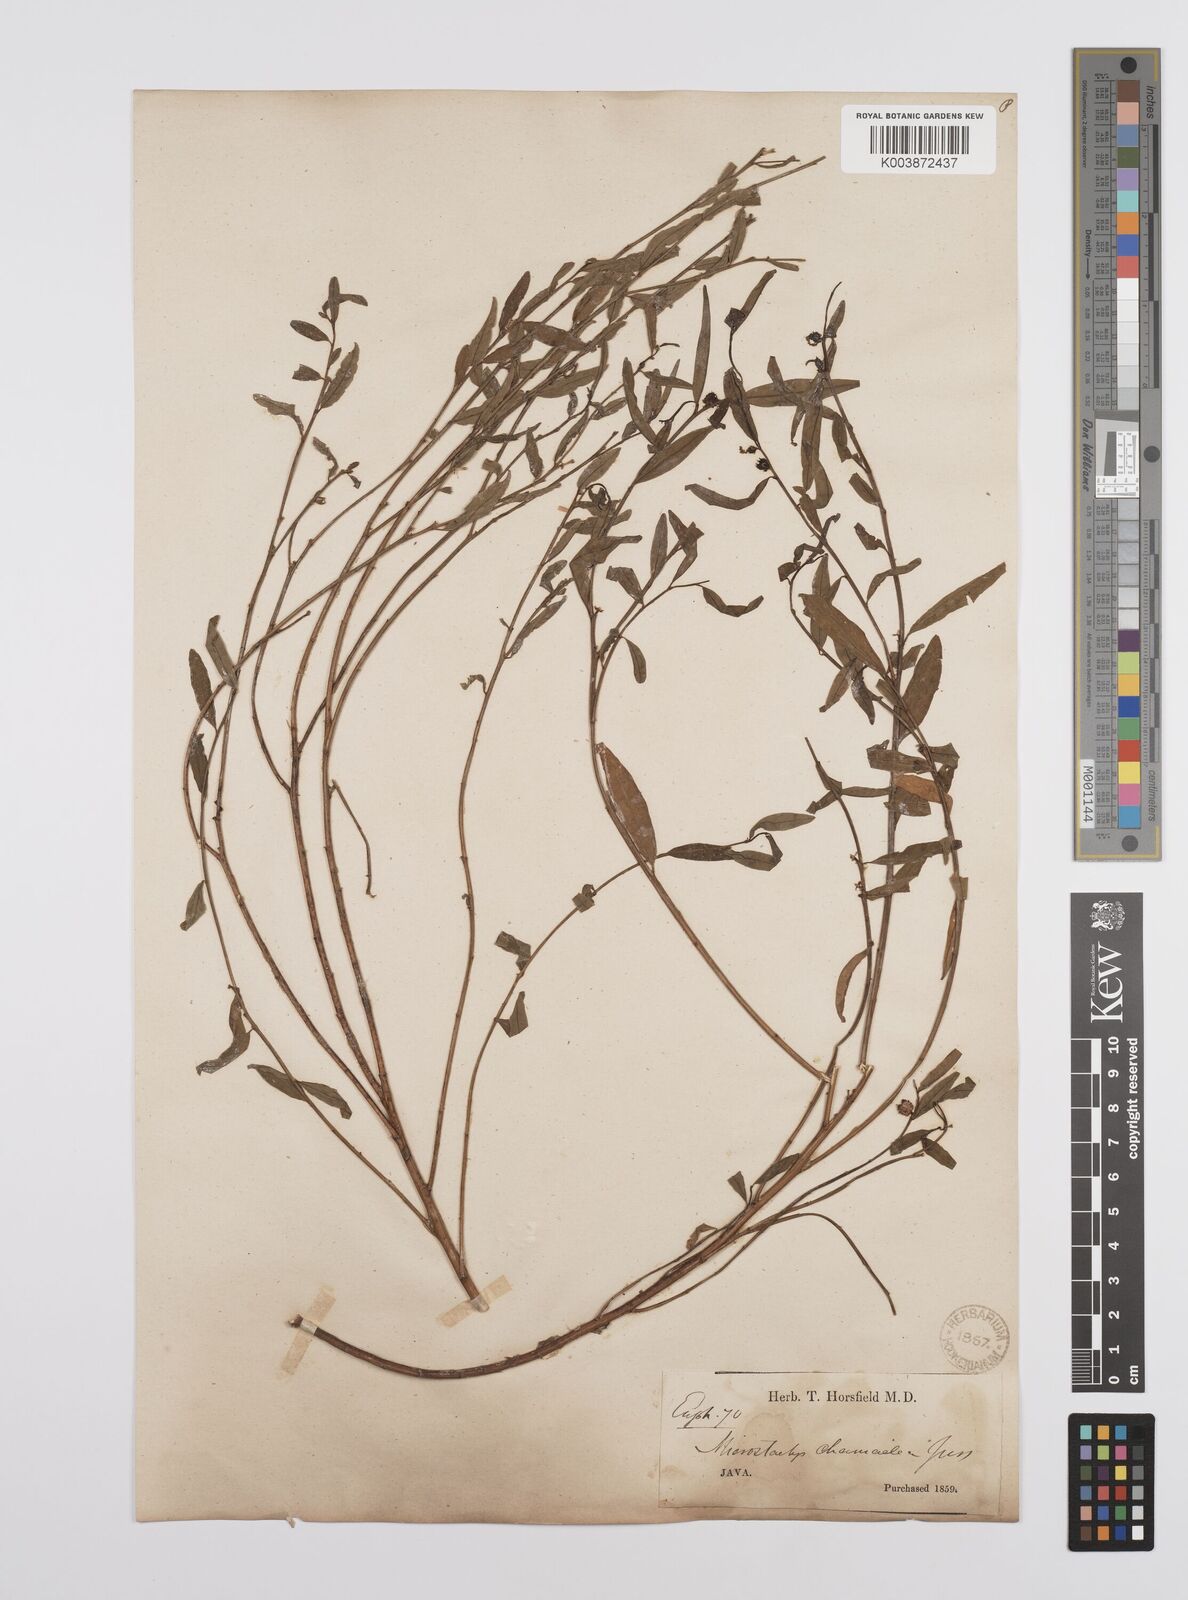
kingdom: Plantae
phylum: Tracheophyta
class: Magnoliopsida
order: Malpighiales
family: Euphorbiaceae
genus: Microstachys
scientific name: Microstachys chamaelea
